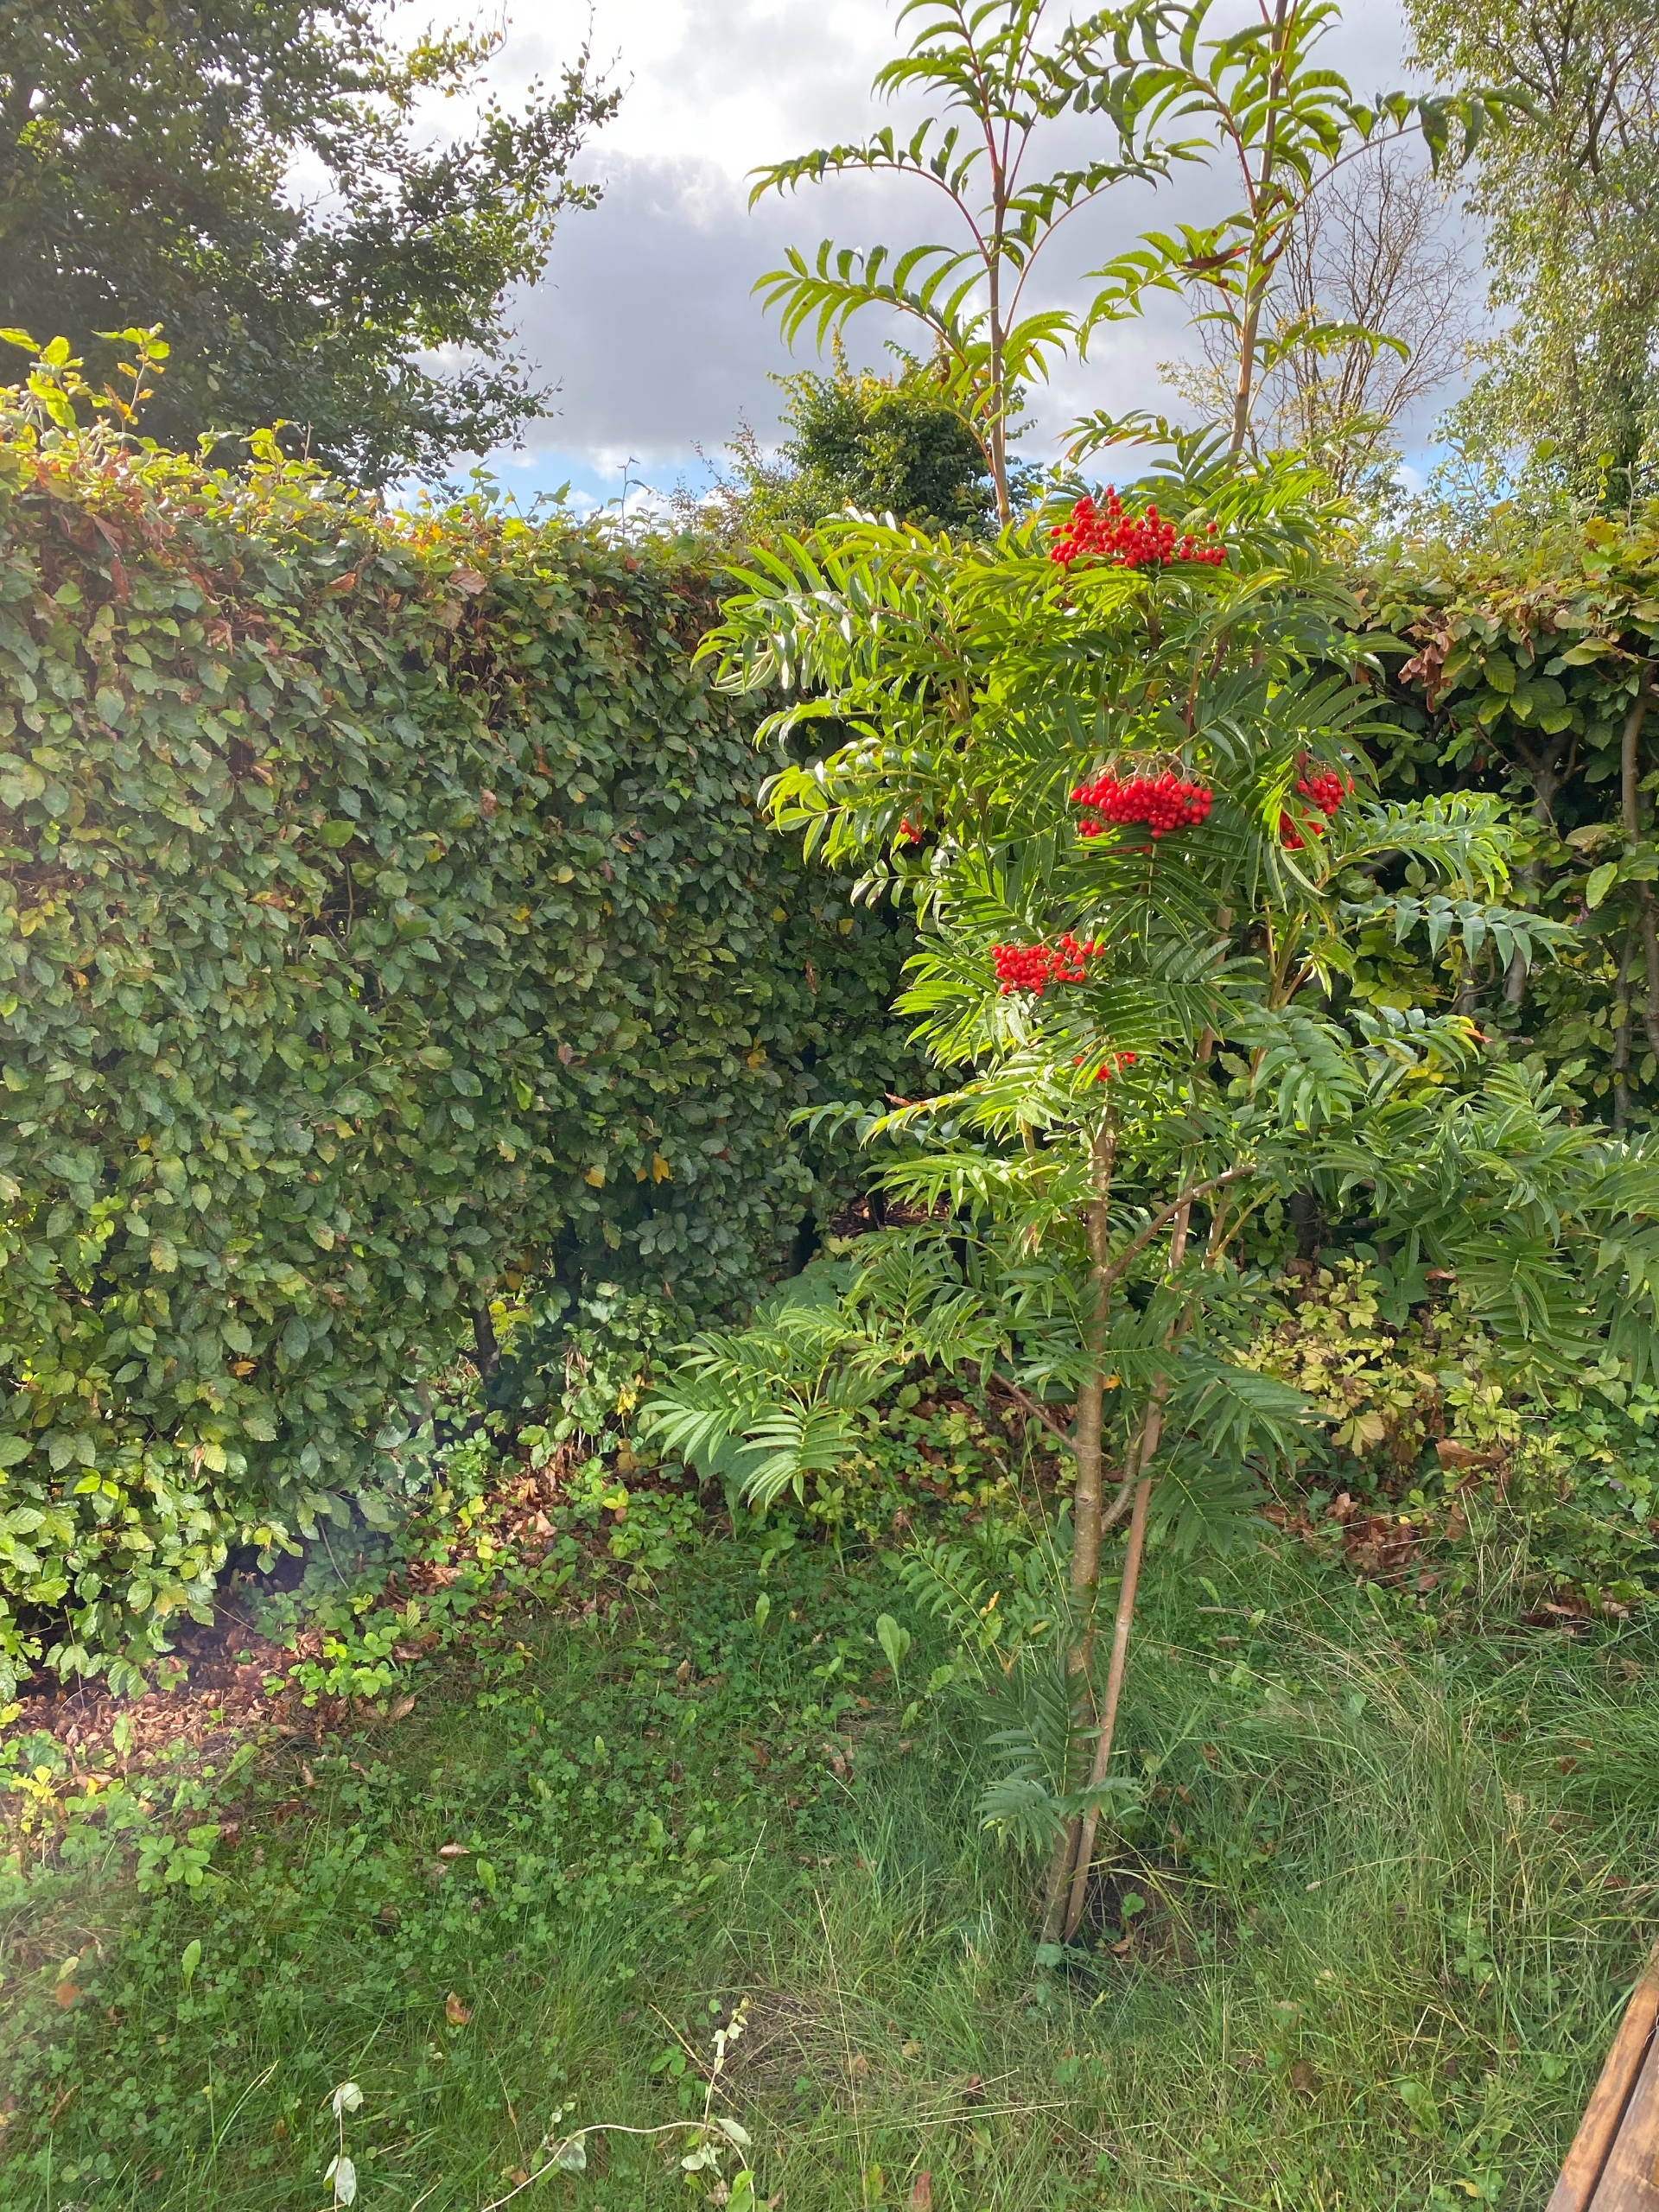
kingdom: Plantae
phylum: Tracheophyta
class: Magnoliopsida
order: Rosales
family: Rosaceae
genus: Sorbus
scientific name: Sorbus
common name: Rønneslægten
